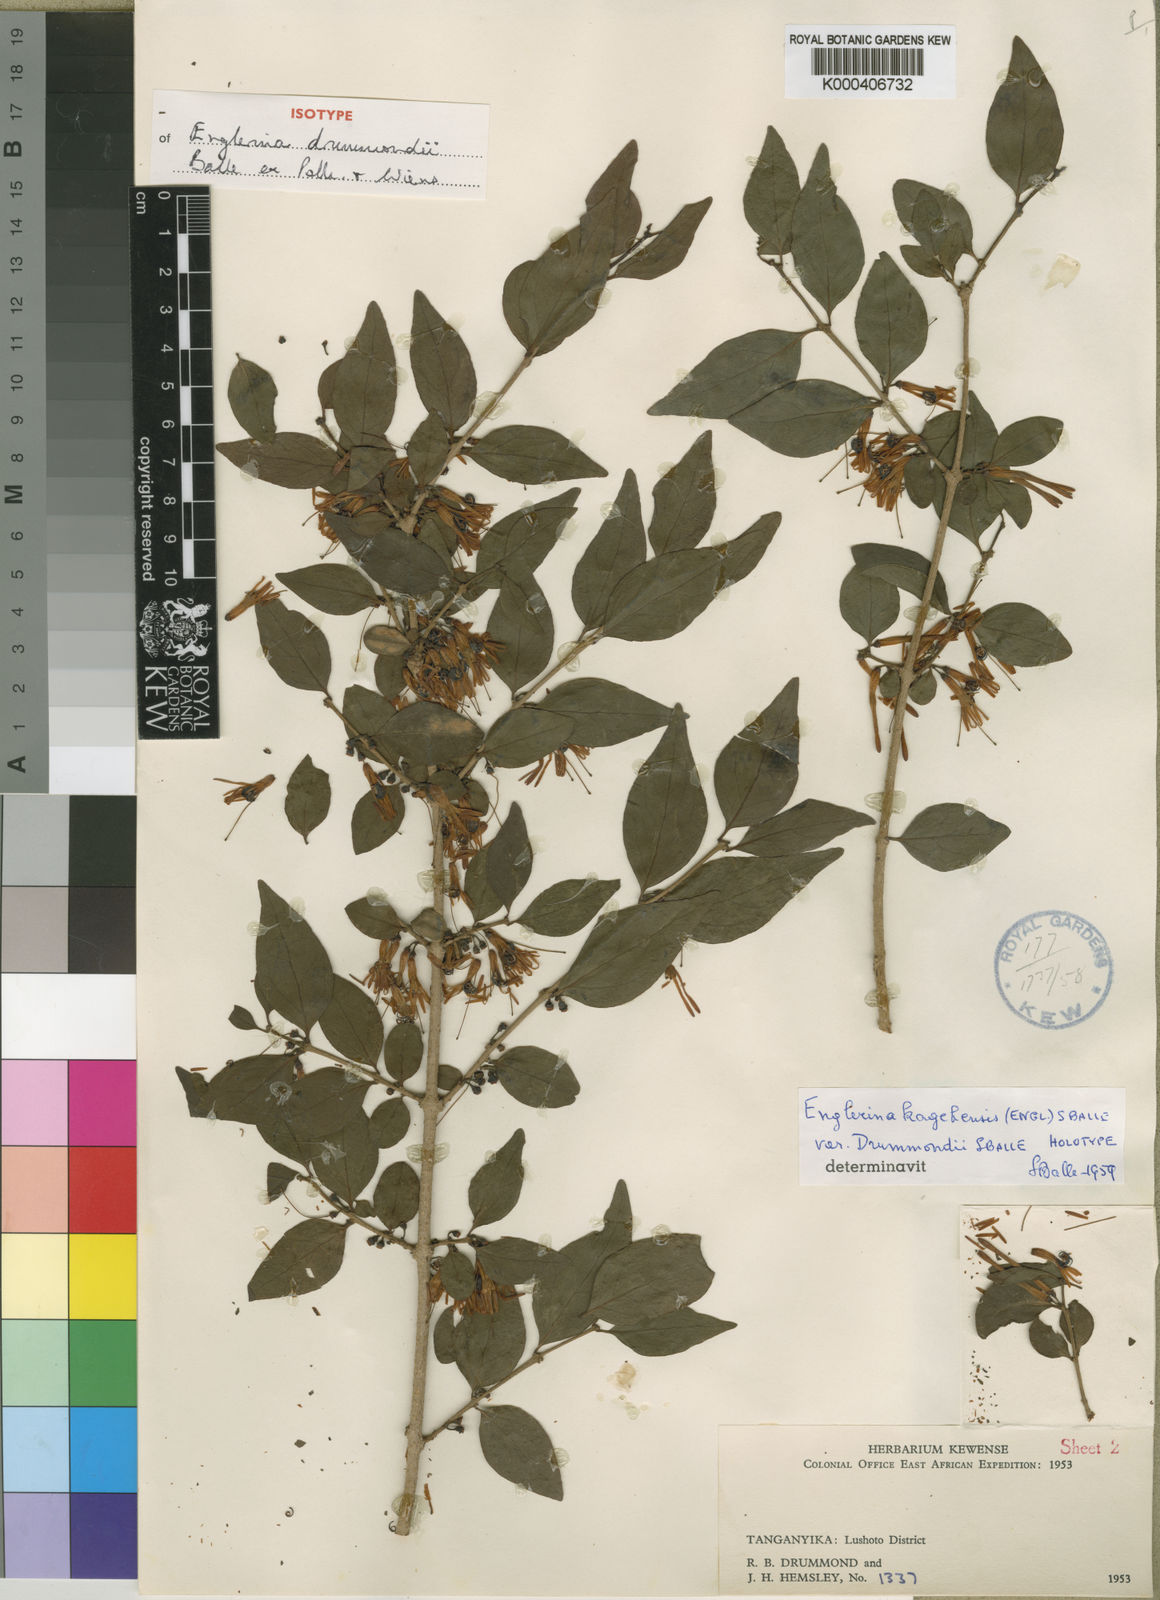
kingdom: Plantae
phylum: Tracheophyta
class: Magnoliopsida
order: Santalales
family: Loranthaceae
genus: Englerina
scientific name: Englerina drummondii
